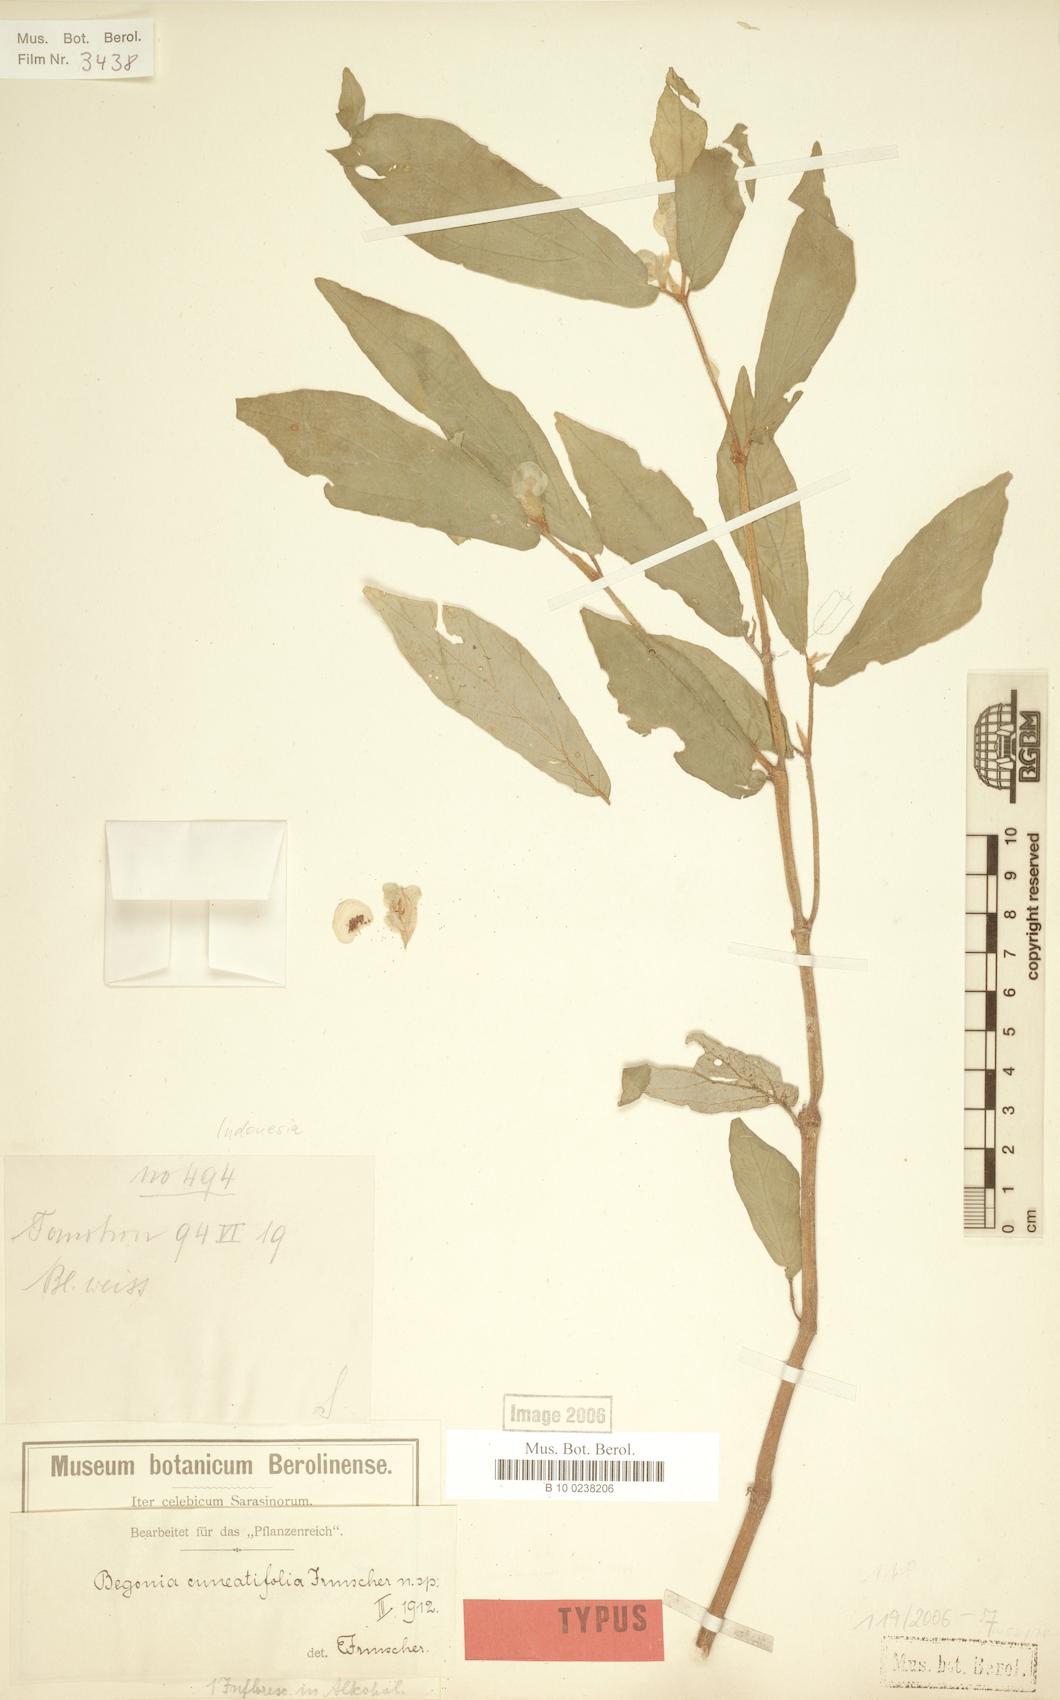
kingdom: Plantae
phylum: Tracheophyta
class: Magnoliopsida
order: Cucurbitales
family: Begoniaceae
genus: Begonia
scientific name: Begonia cuneatifolia
